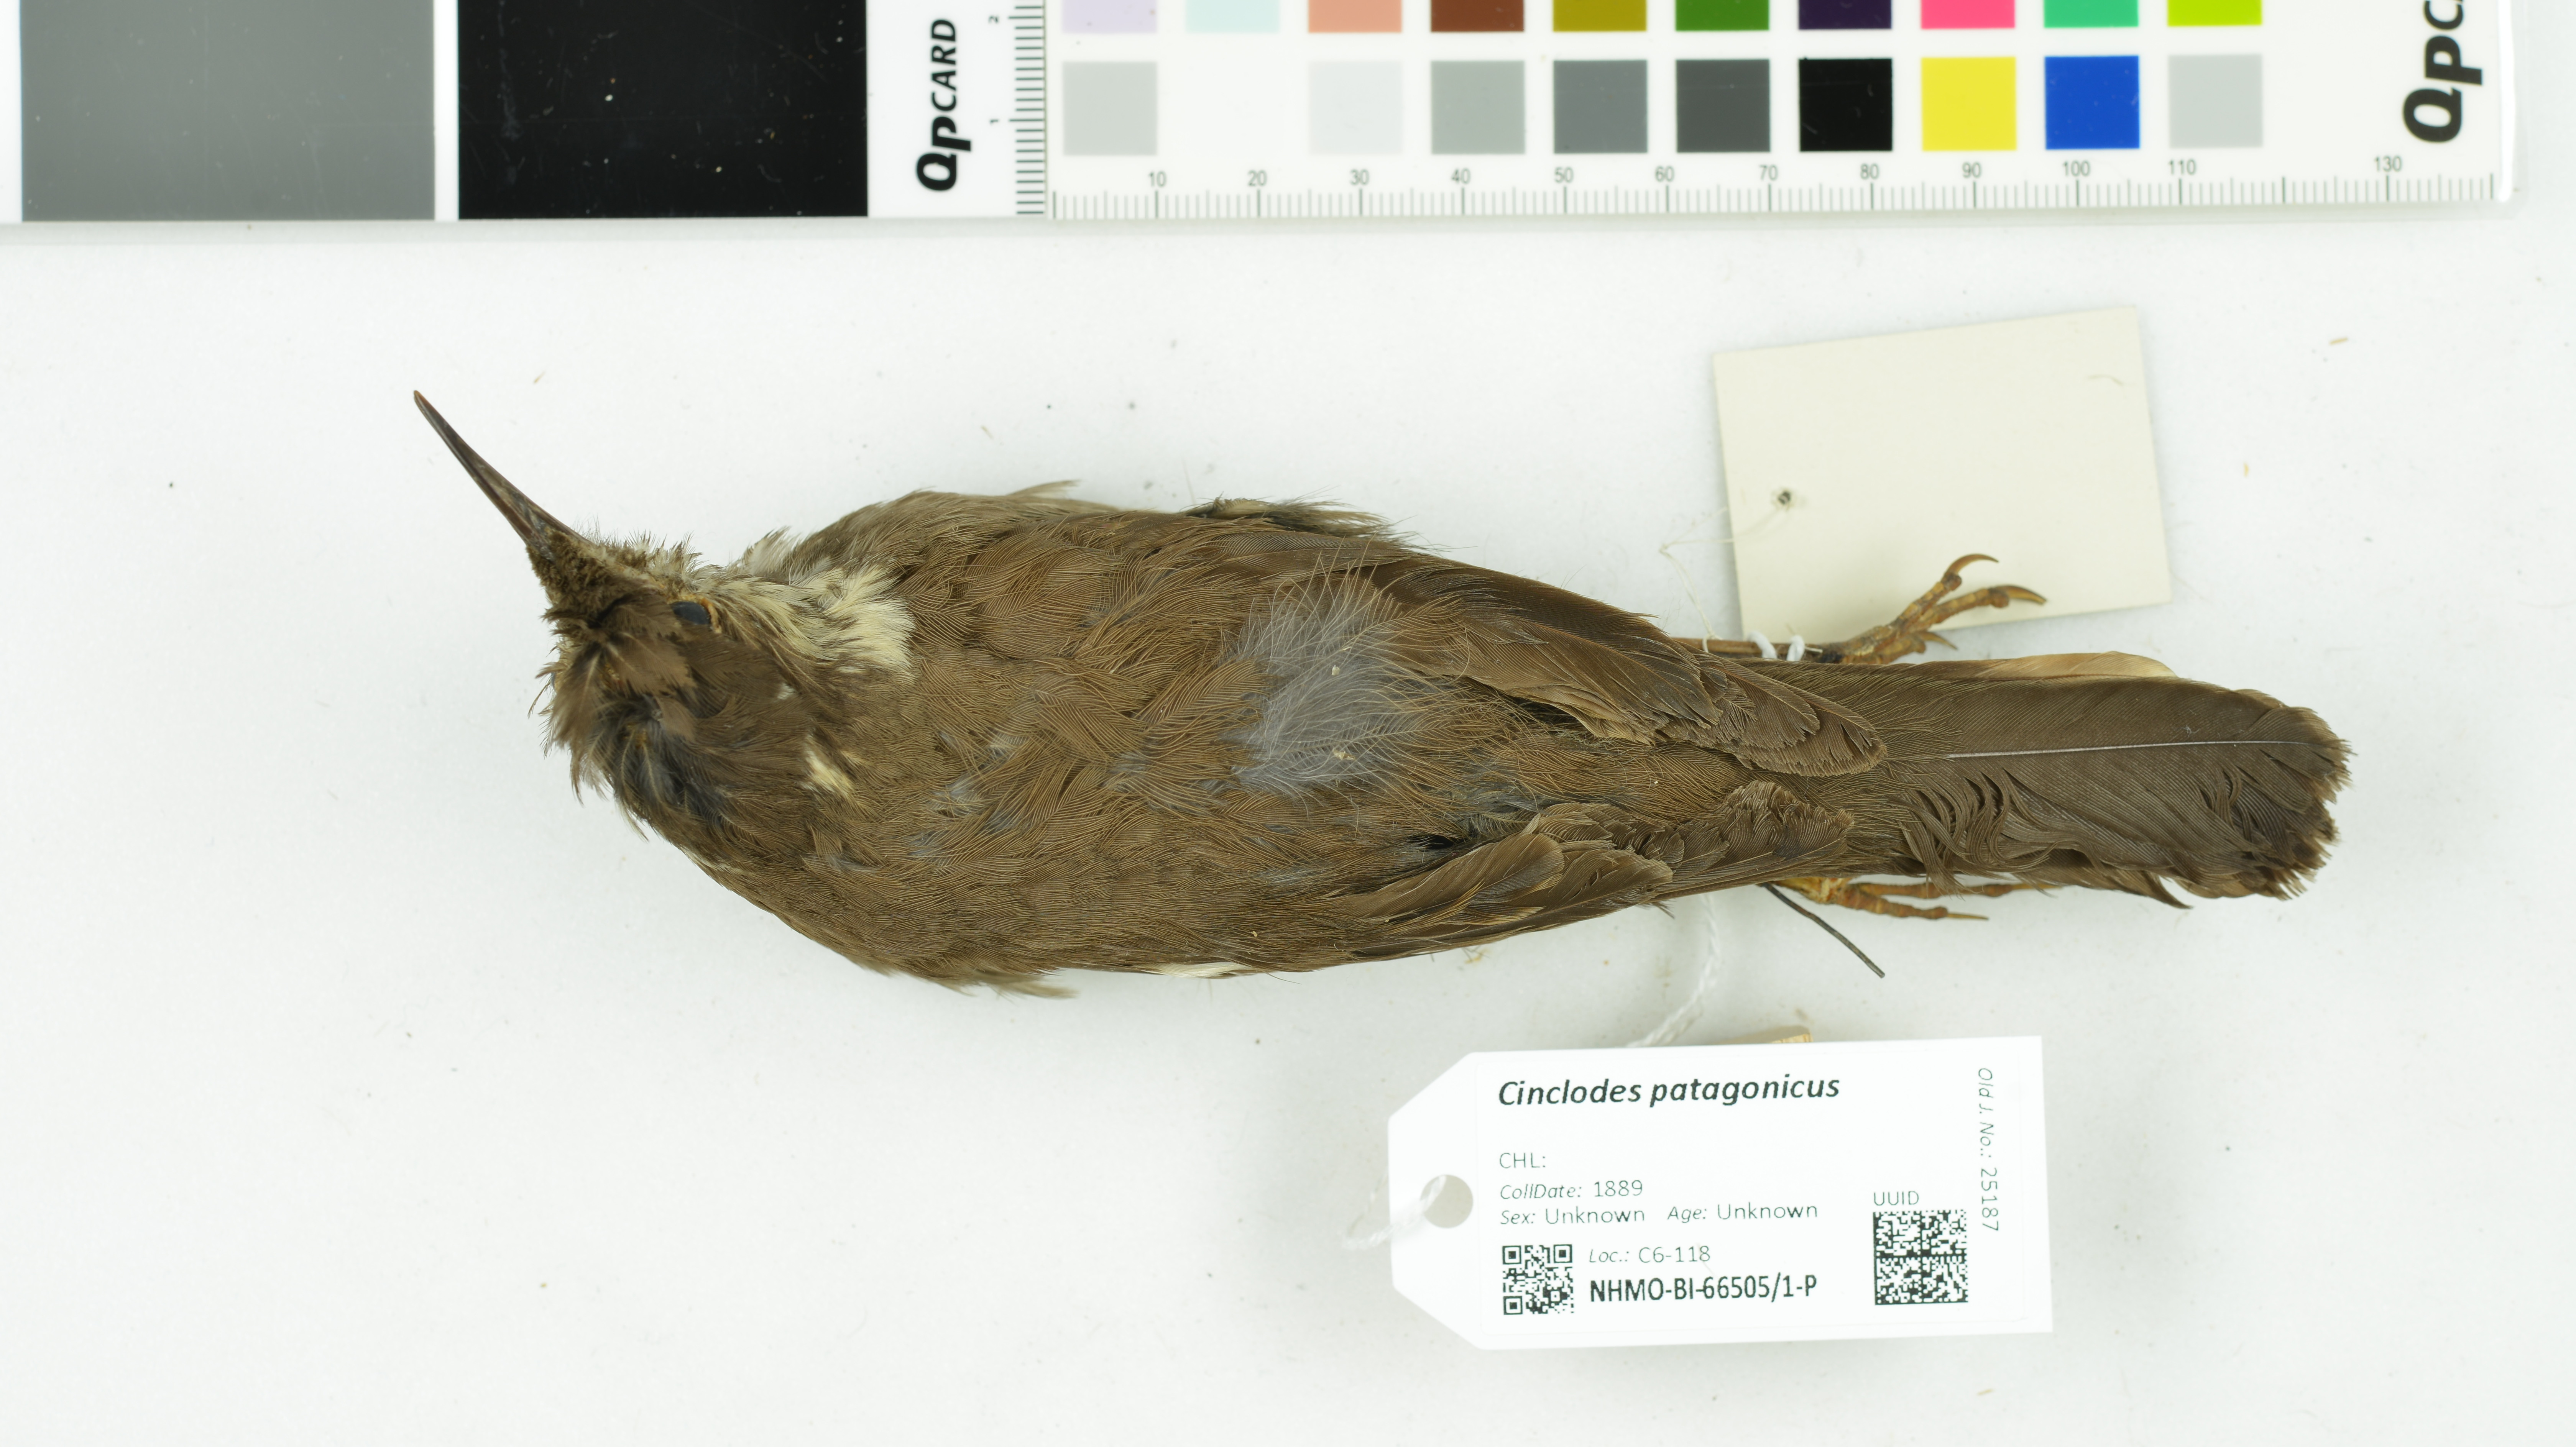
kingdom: Animalia
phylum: Chordata
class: Aves
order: Passeriformes
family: Furnariidae
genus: Cinclodes
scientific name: Cinclodes patagonicus
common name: Dark-bellied cinclodes
